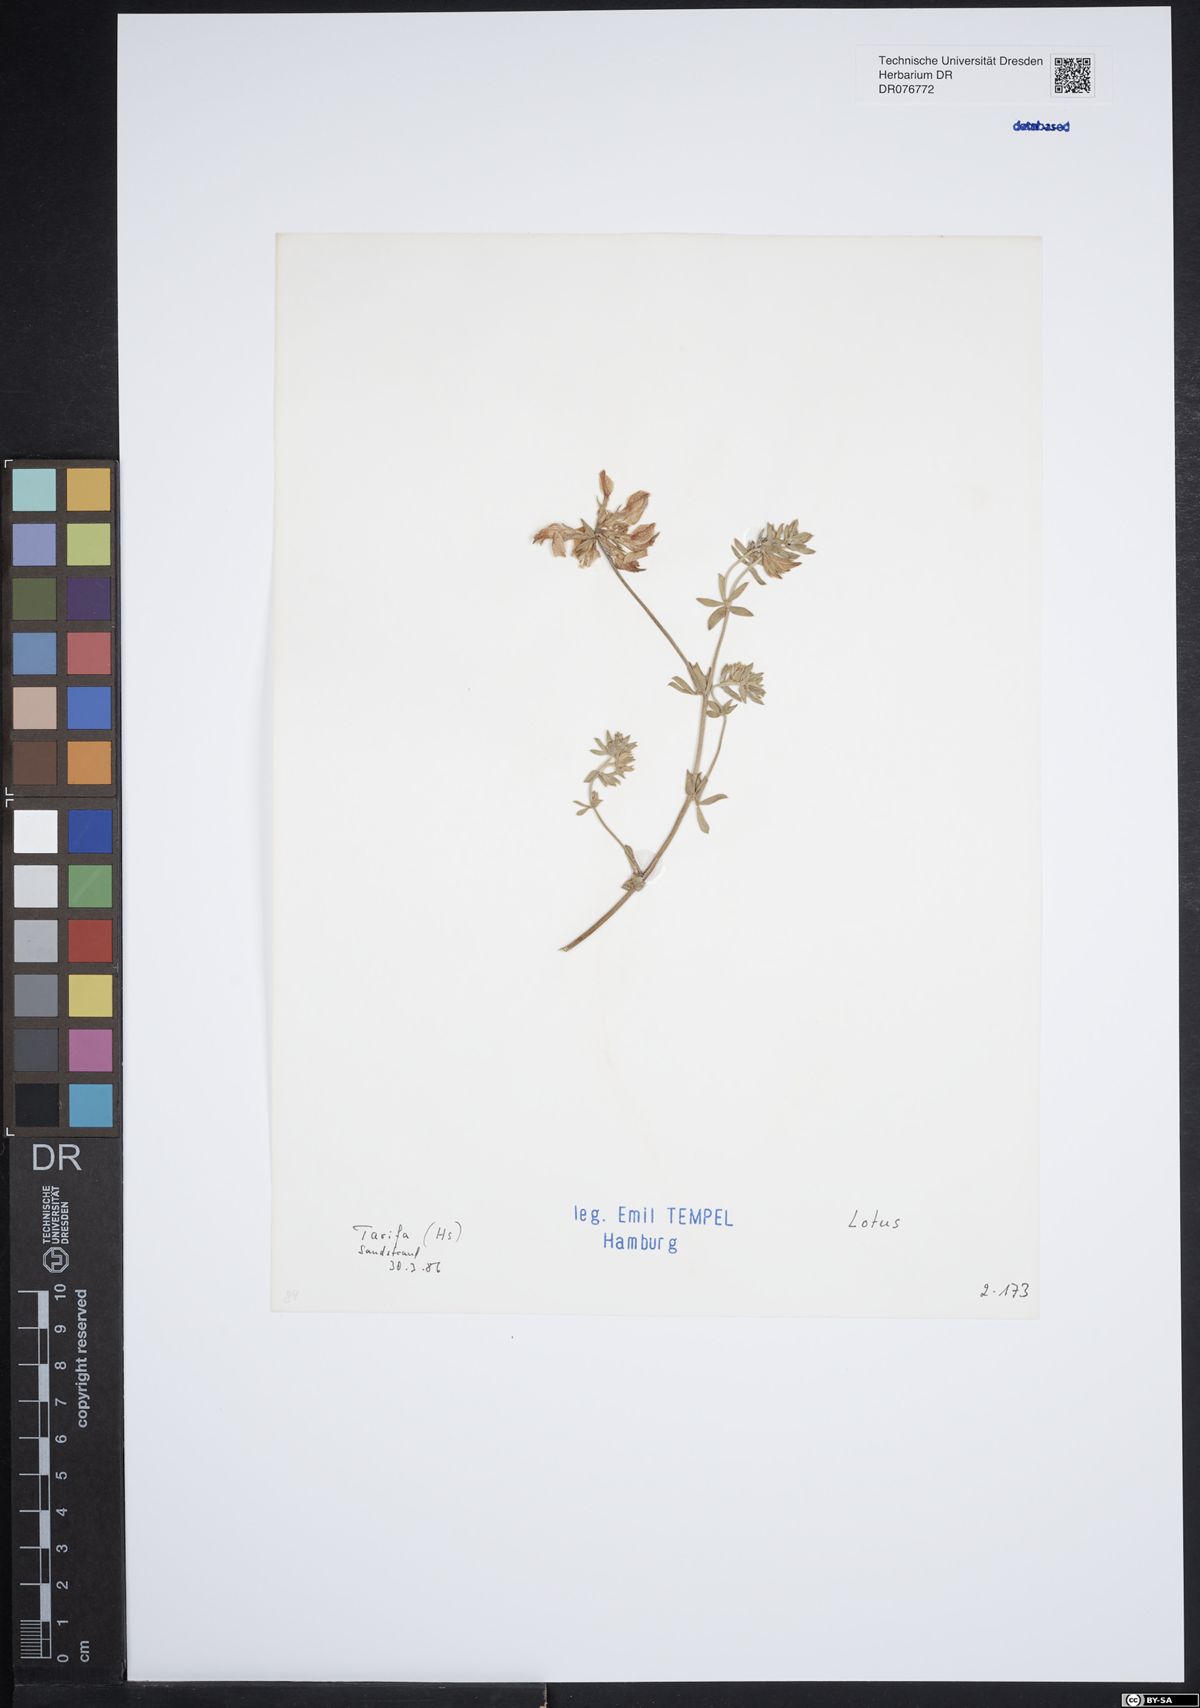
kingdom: Plantae
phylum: Tracheophyta
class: Magnoliopsida
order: Fabales
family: Fabaceae
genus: Lotus
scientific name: Lotus
